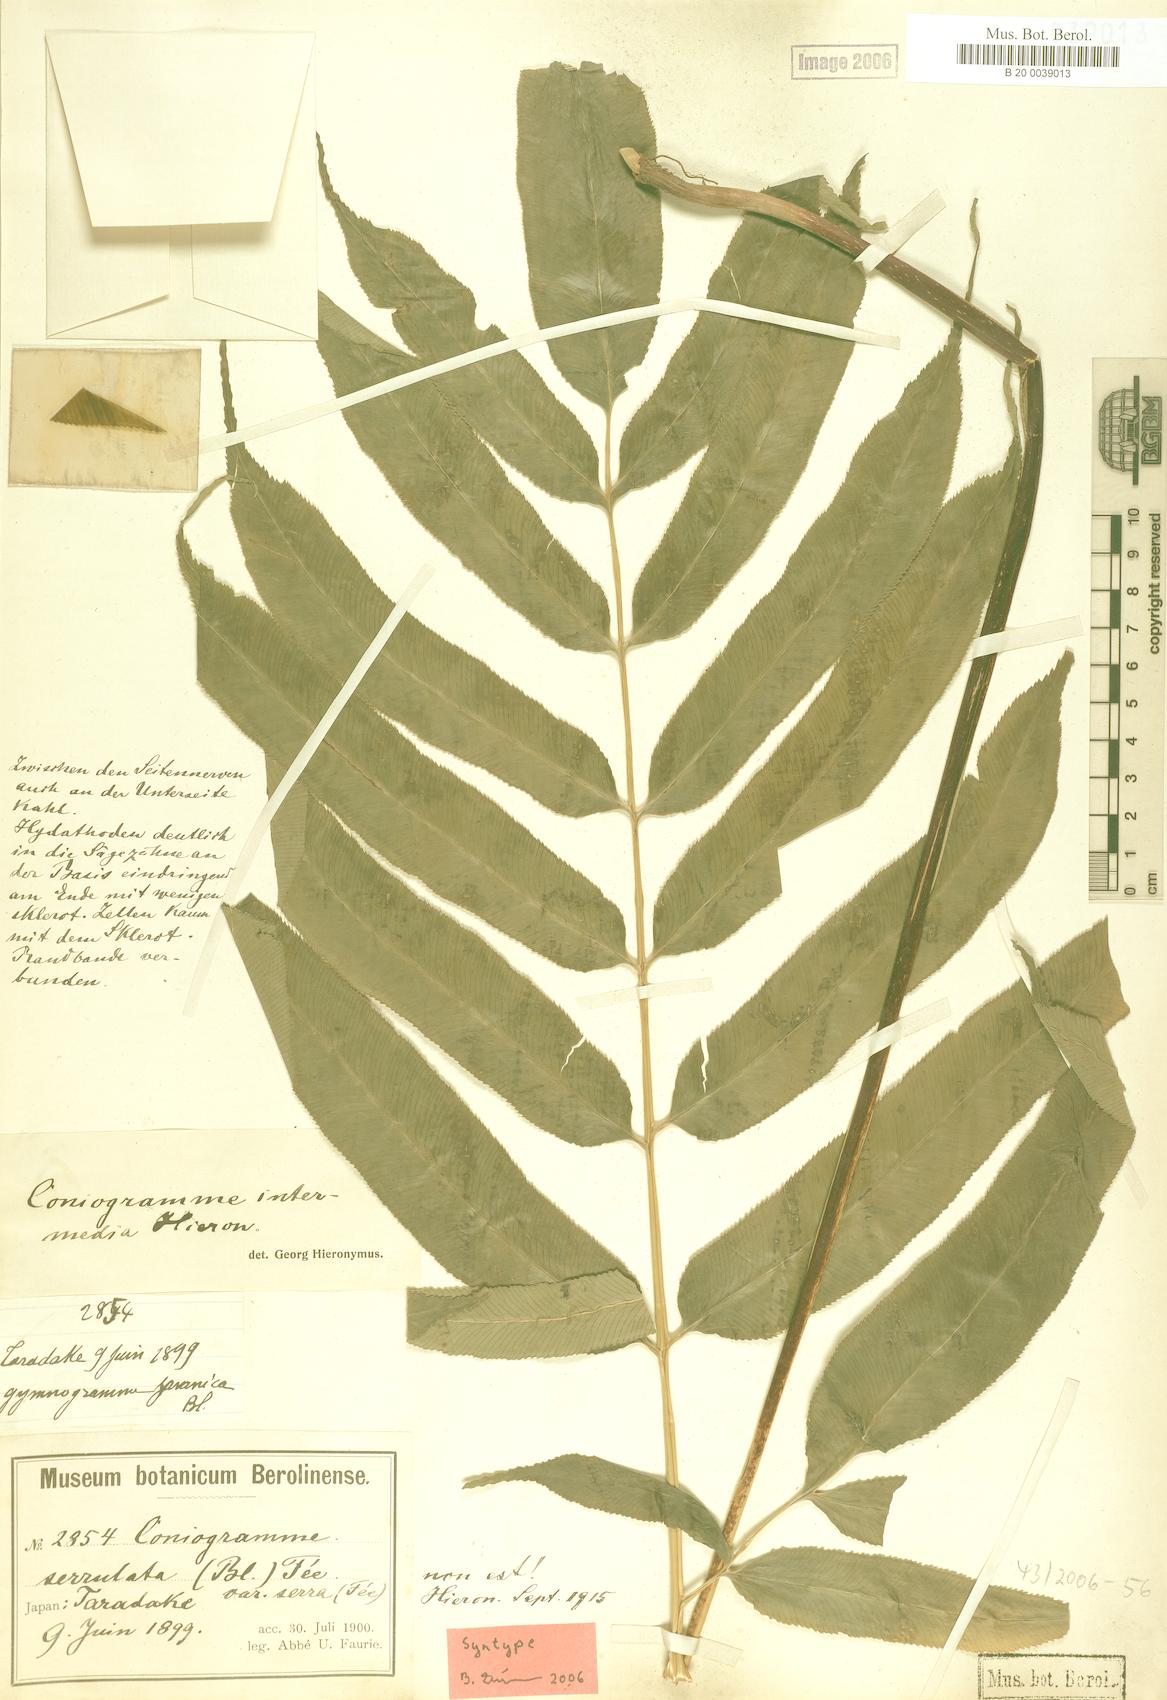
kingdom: Plantae
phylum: Tracheophyta
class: Polypodiopsida
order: Polypodiales
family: Pteridaceae
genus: Coniogramme
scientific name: Coniogramme intermedia
